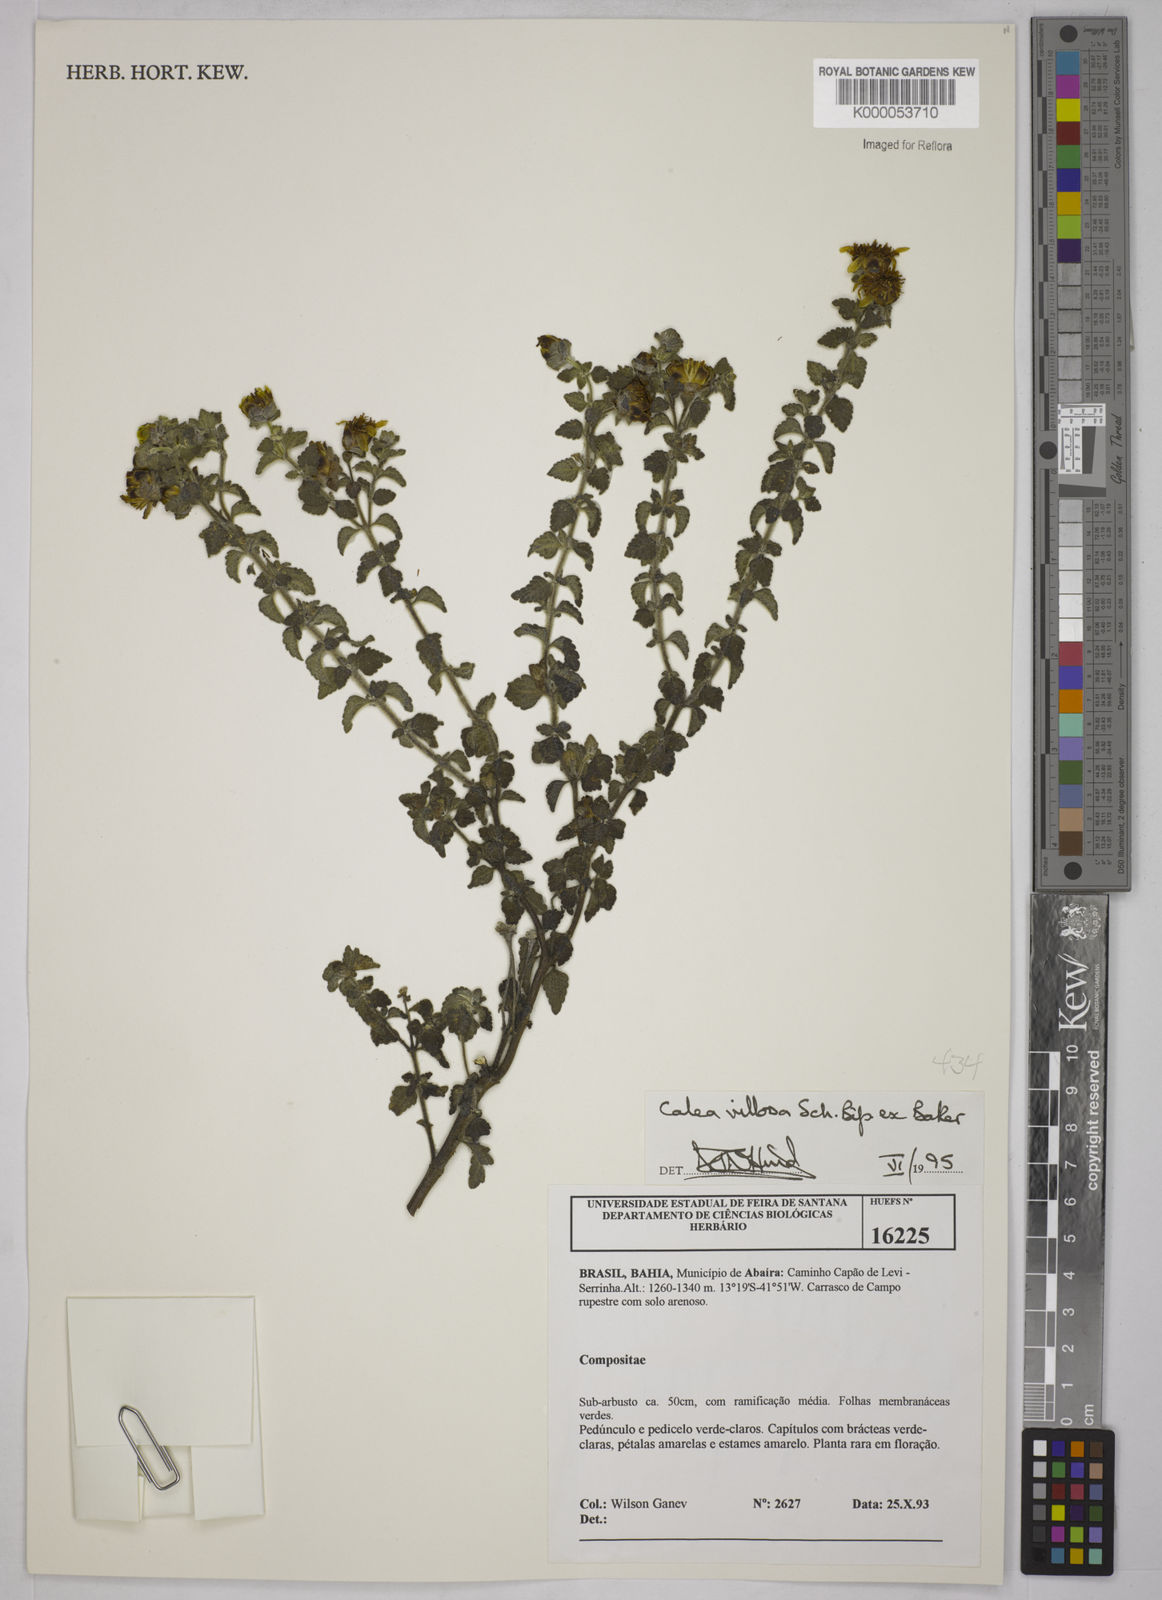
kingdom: Plantae
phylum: Tracheophyta
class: Magnoliopsida
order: Asterales
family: Asteraceae
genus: Calea
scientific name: Calea villosa
